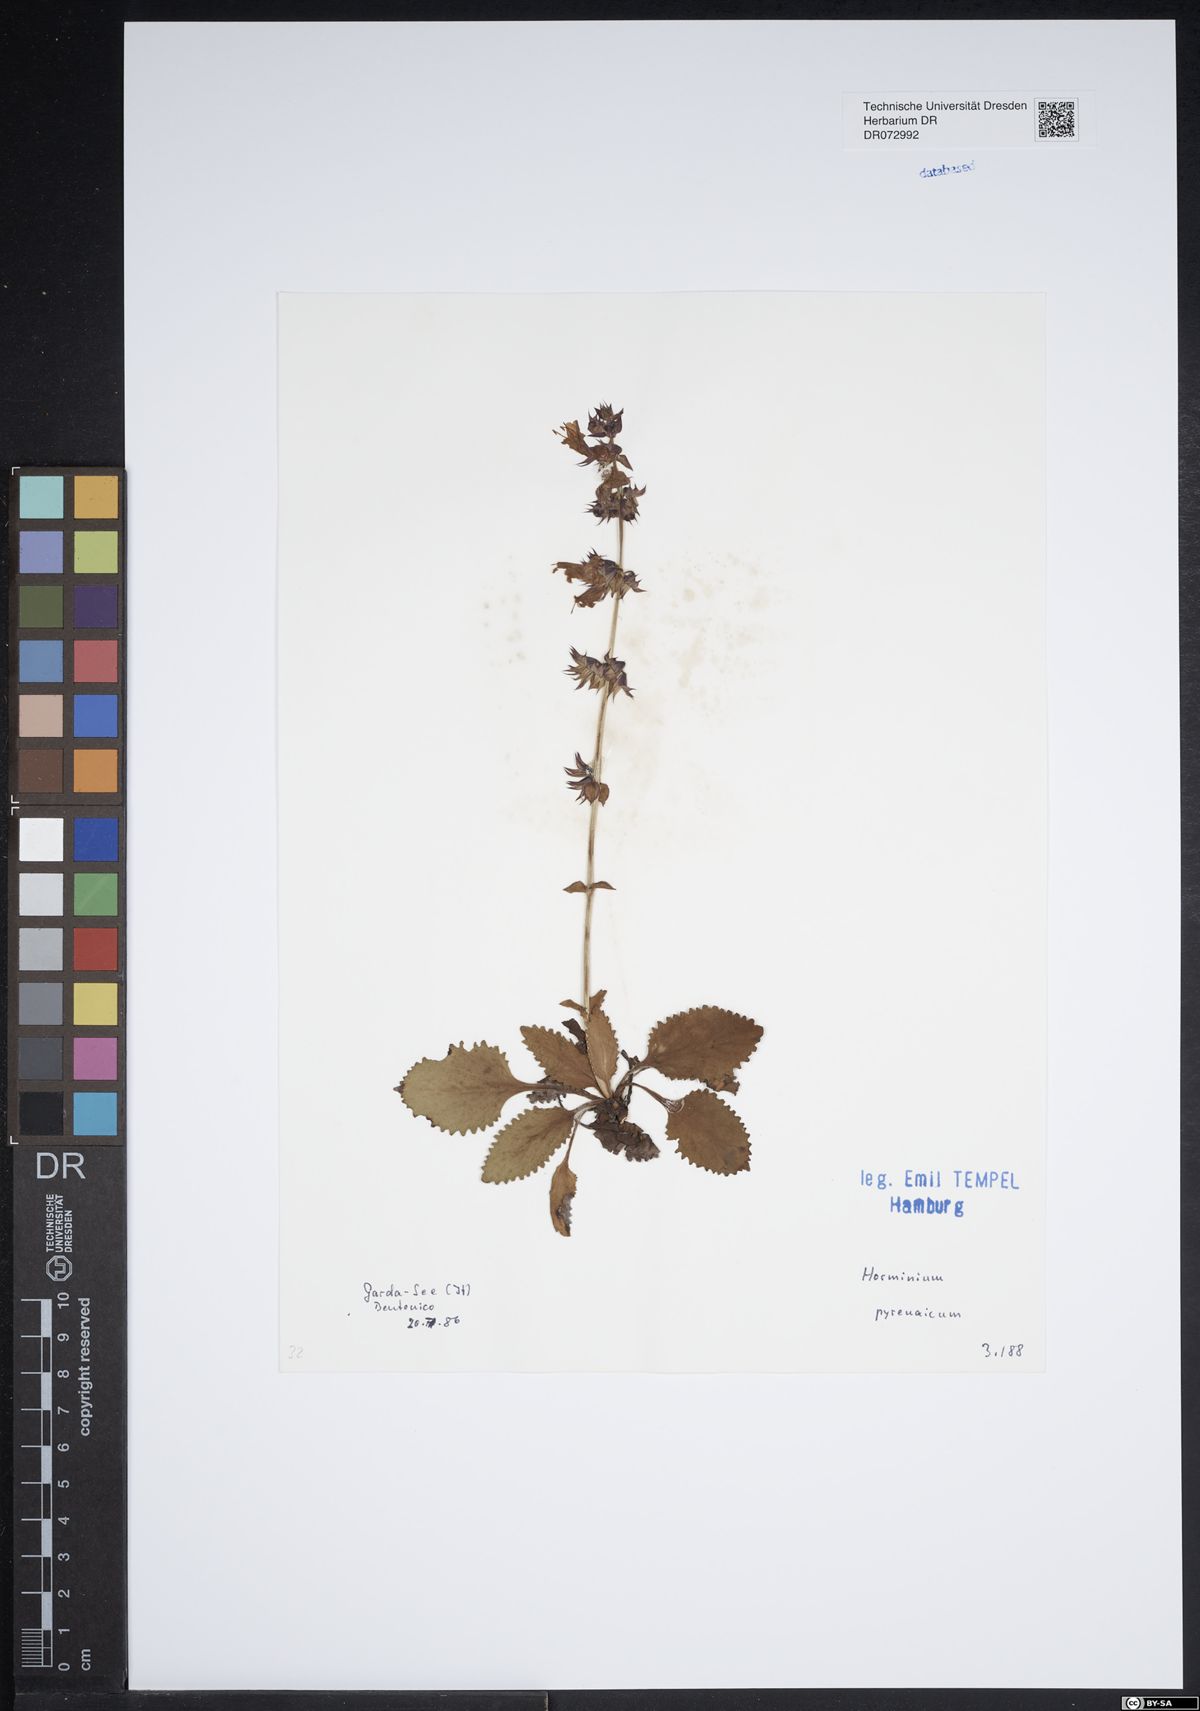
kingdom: Plantae
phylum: Tracheophyta
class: Magnoliopsida
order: Lamiales
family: Lamiaceae
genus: Horminum
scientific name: Horminum pyrenaicum
